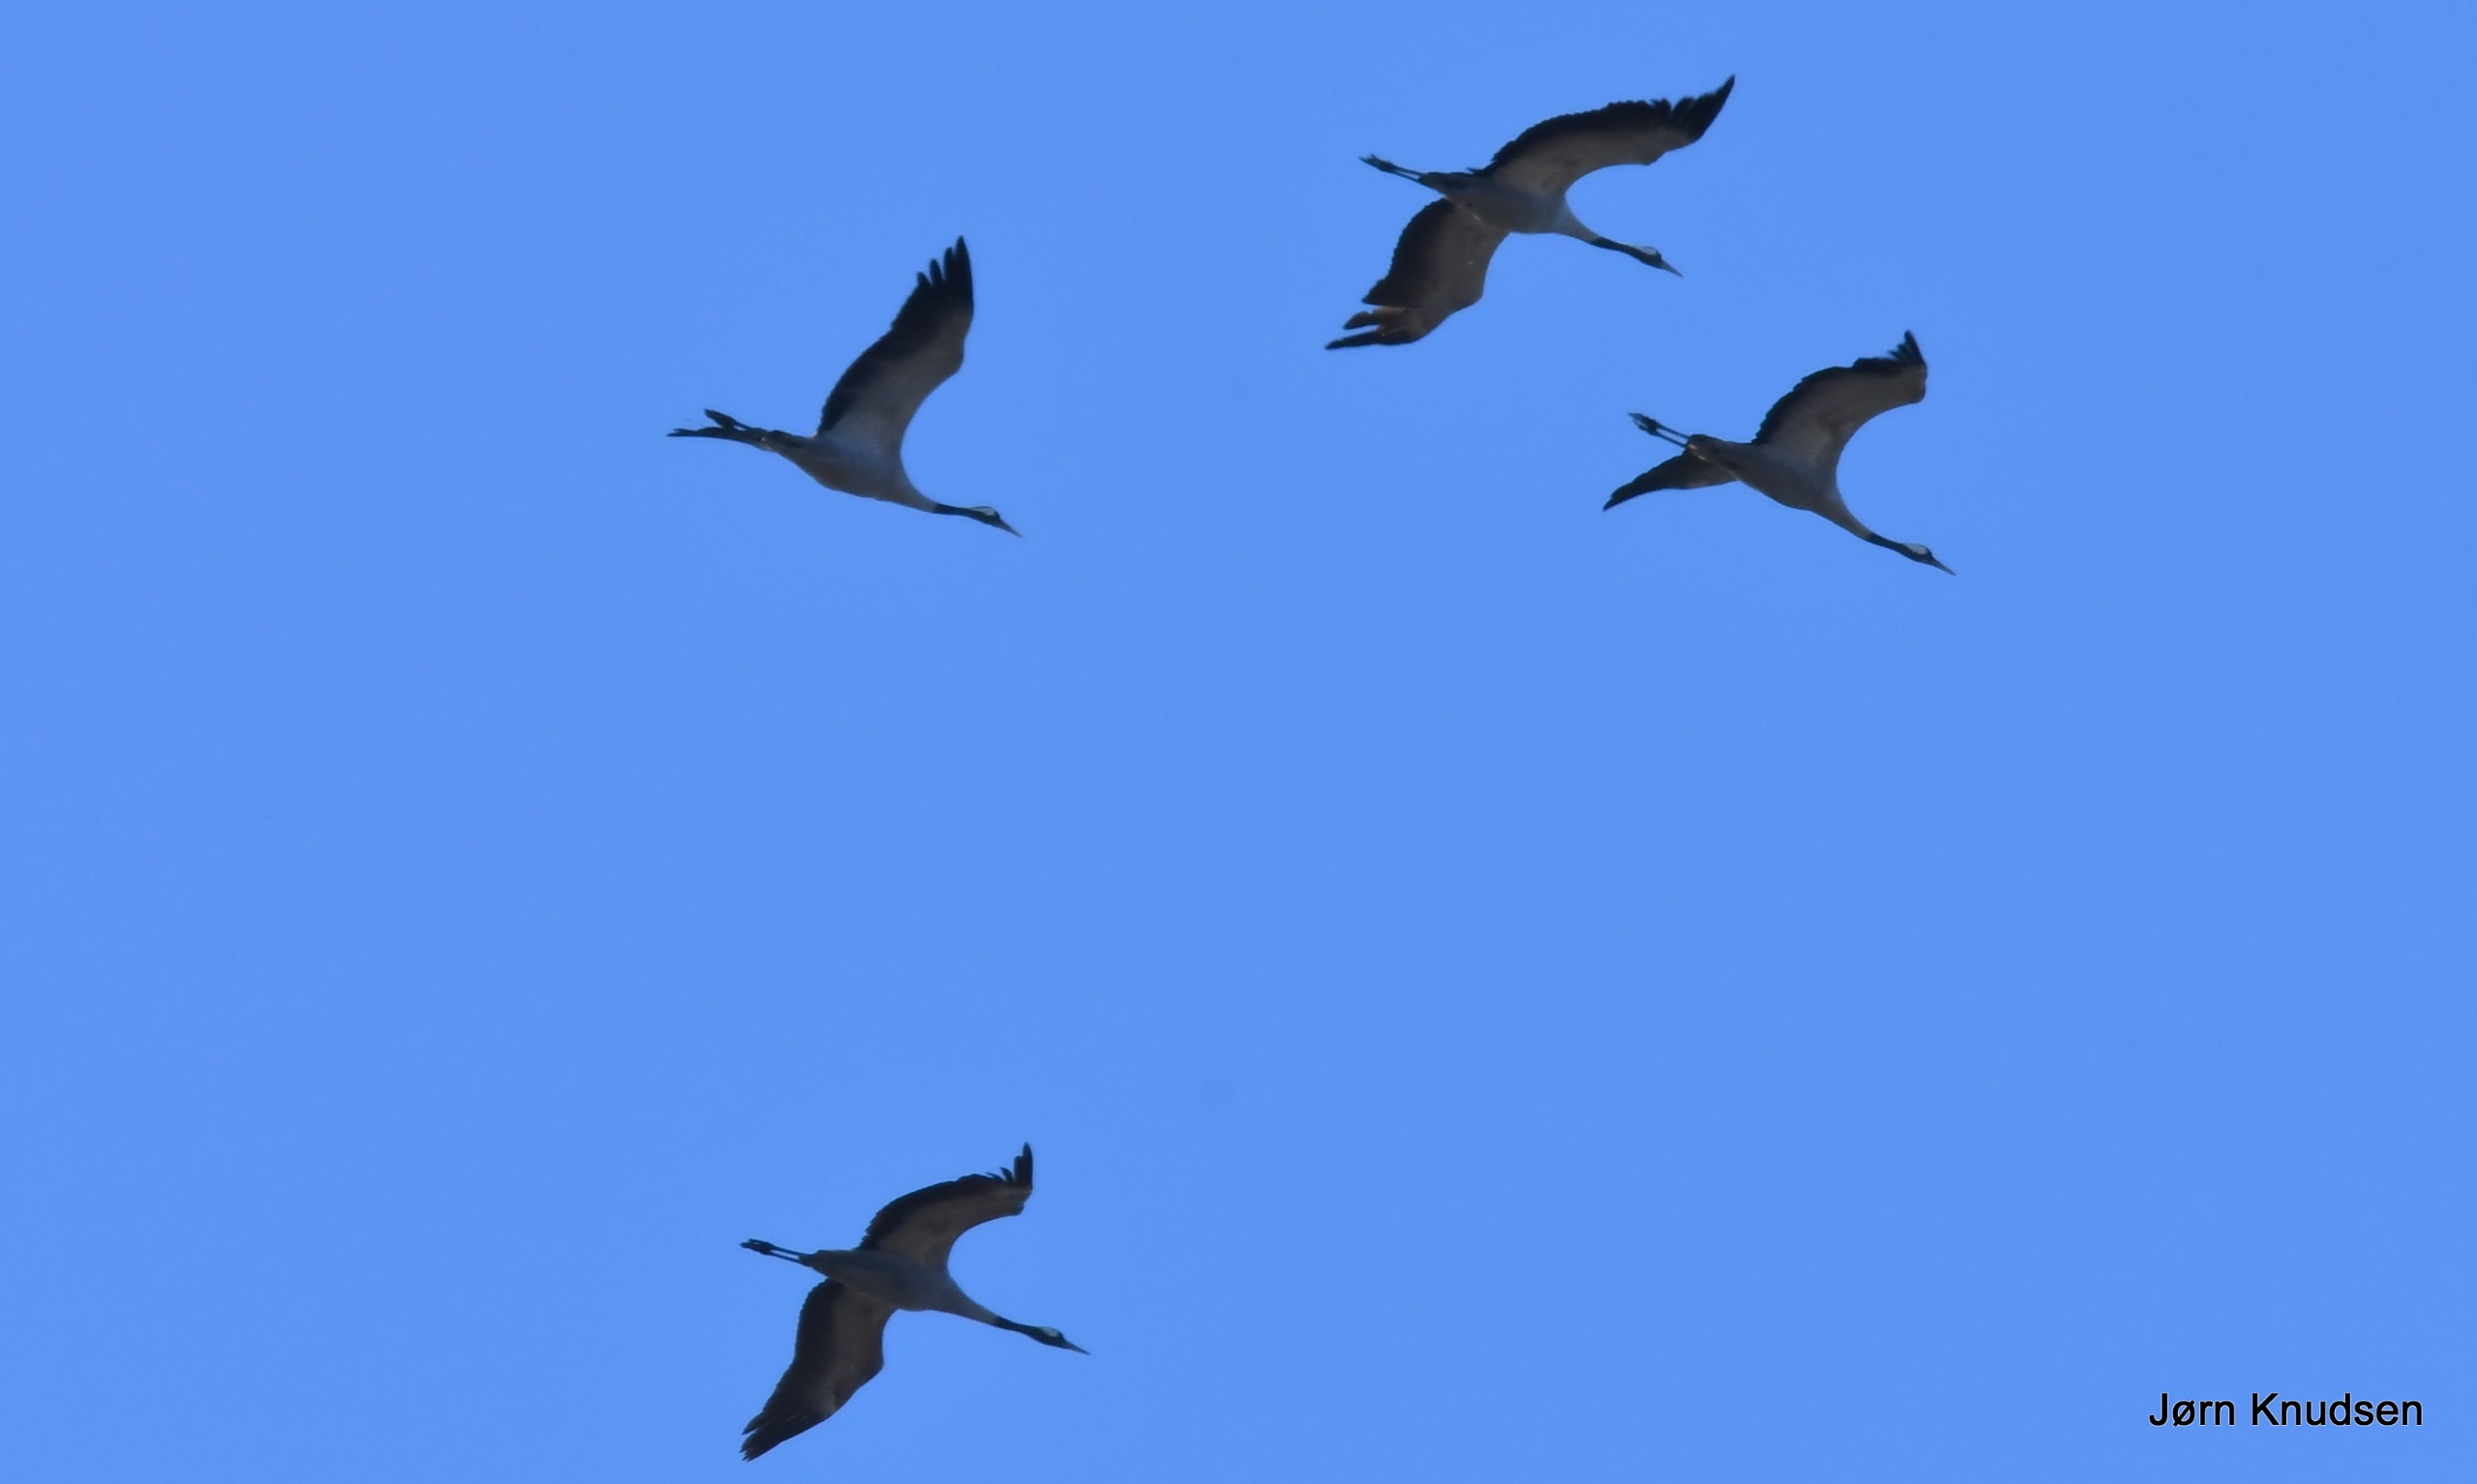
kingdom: Animalia
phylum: Chordata
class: Aves
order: Gruiformes
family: Gruidae
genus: Grus
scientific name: Grus grus
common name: Trane
